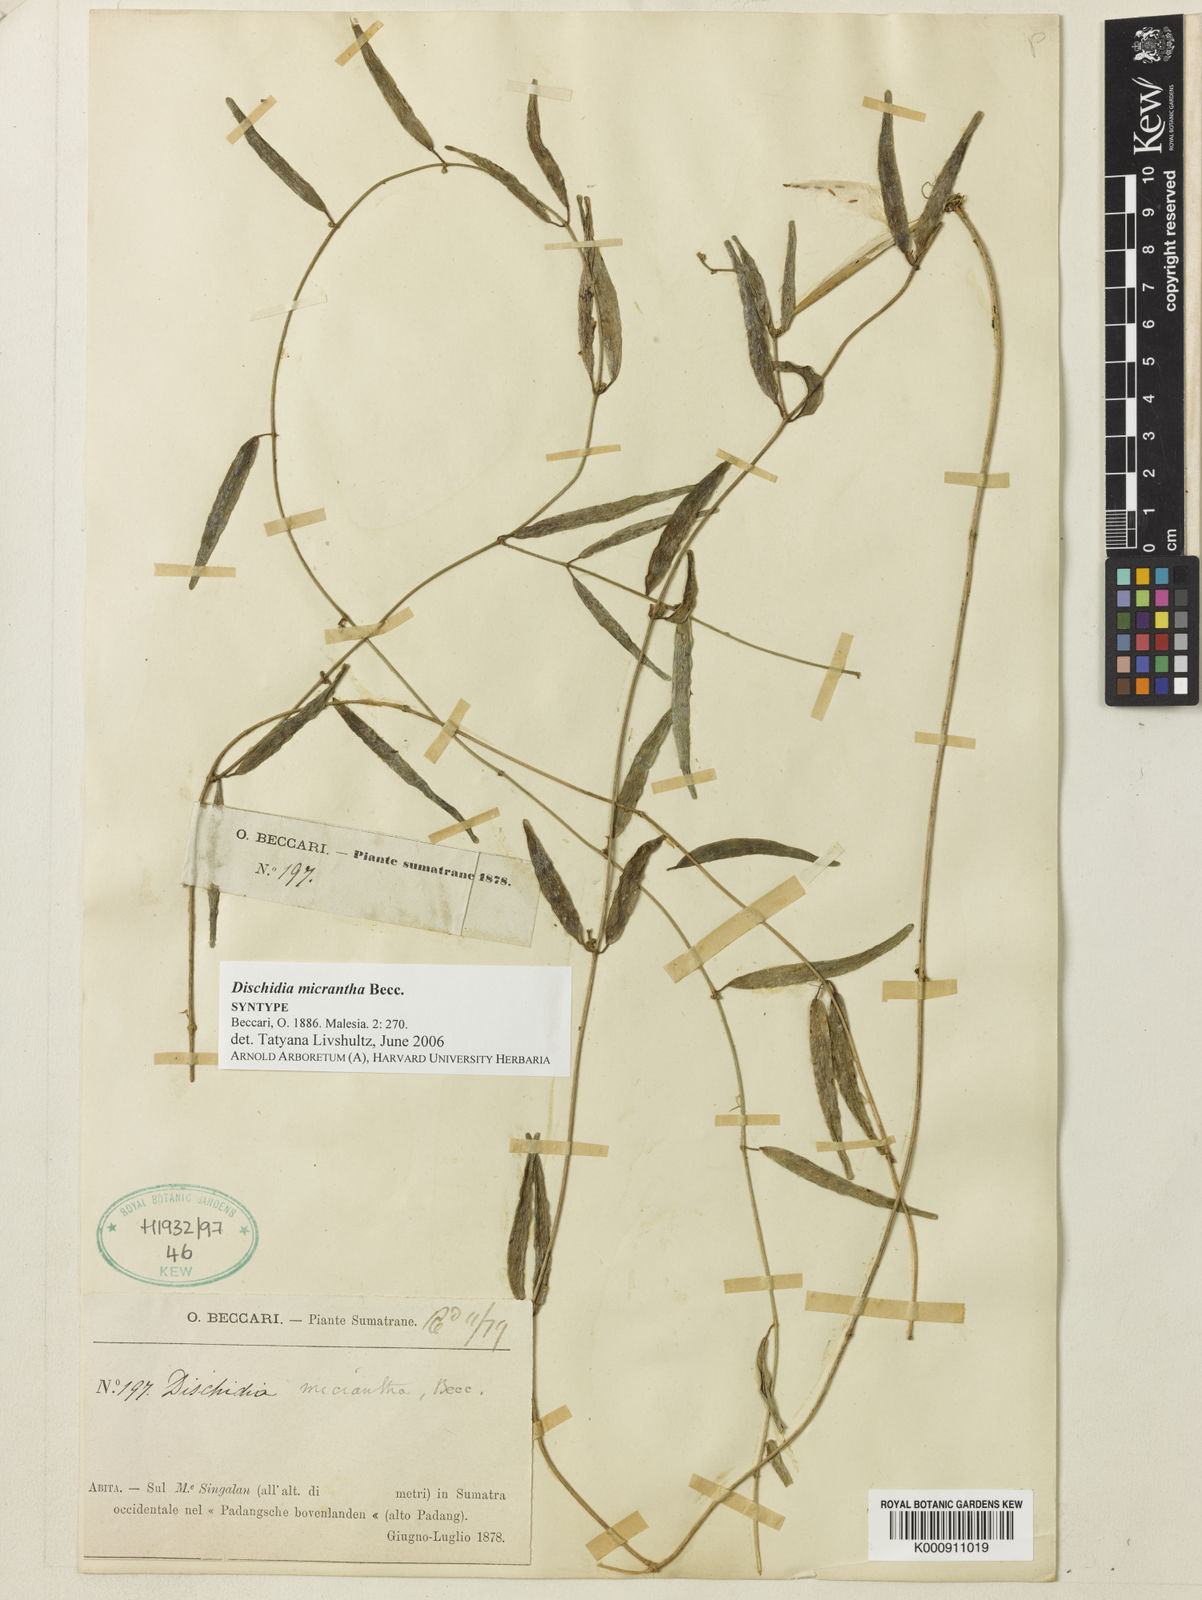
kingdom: Plantae
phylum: Tracheophyta
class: Magnoliopsida
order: Gentianales
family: Apocynaceae
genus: Dischidia
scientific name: Dischidia micrantha
